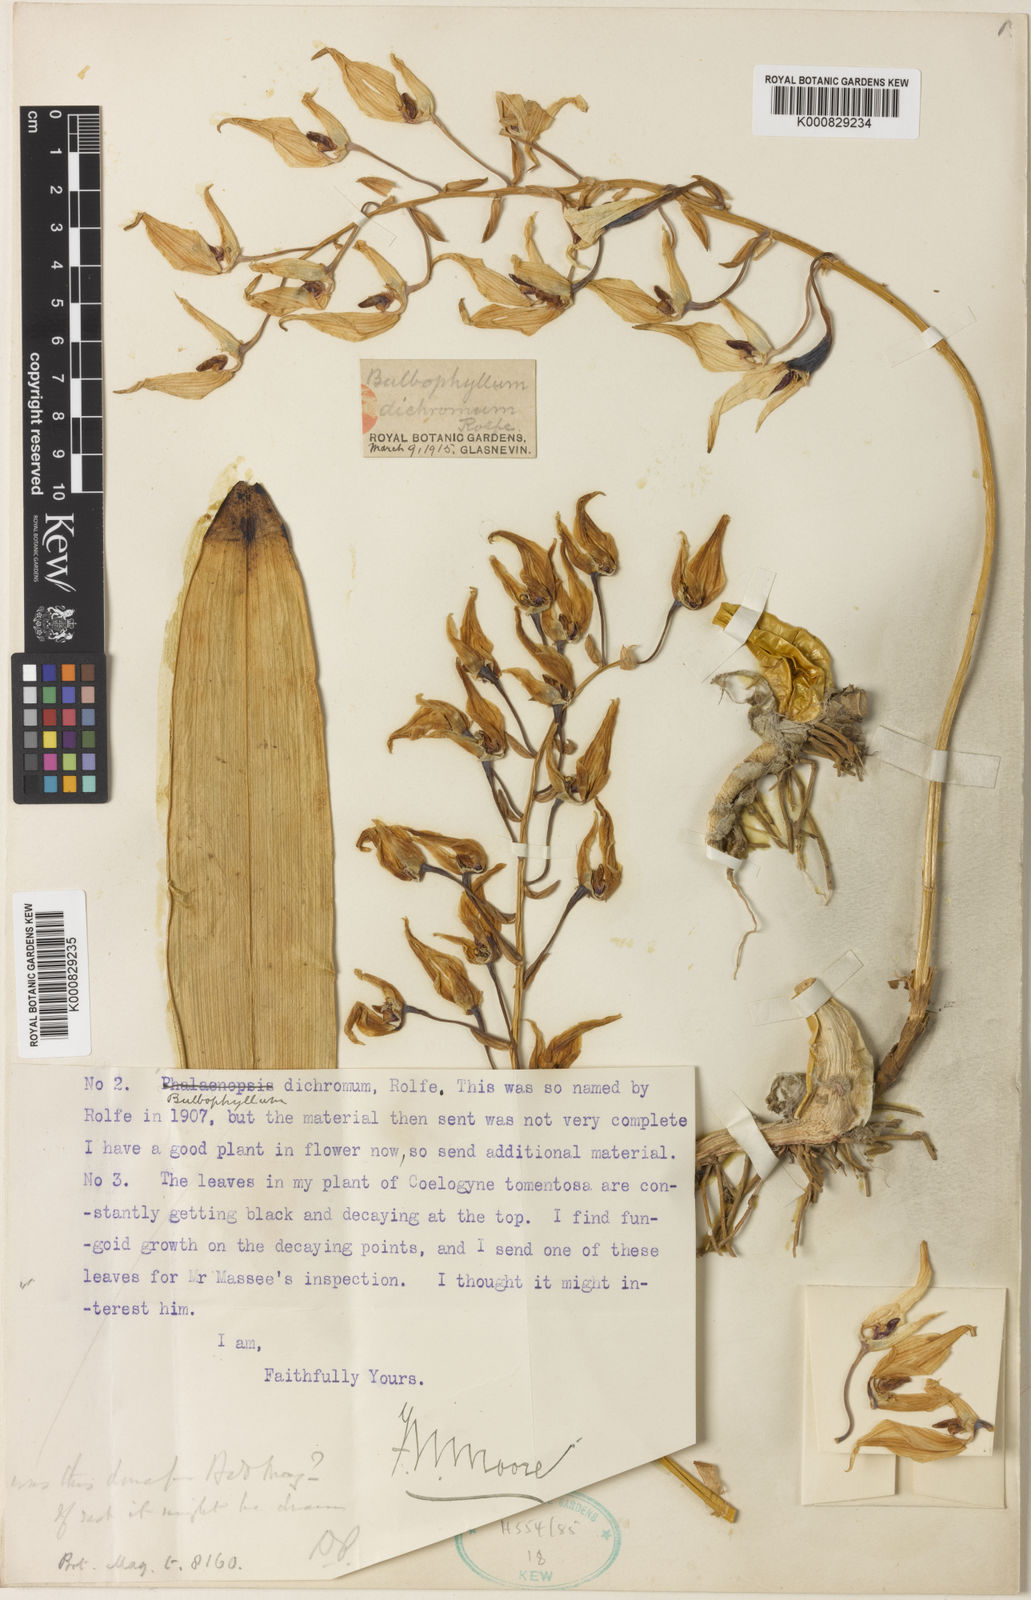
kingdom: Plantae
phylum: Tracheophyta
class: Liliopsida
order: Asparagales
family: Orchidaceae
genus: Bulbophyllum
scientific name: Bulbophyllum dichromum
